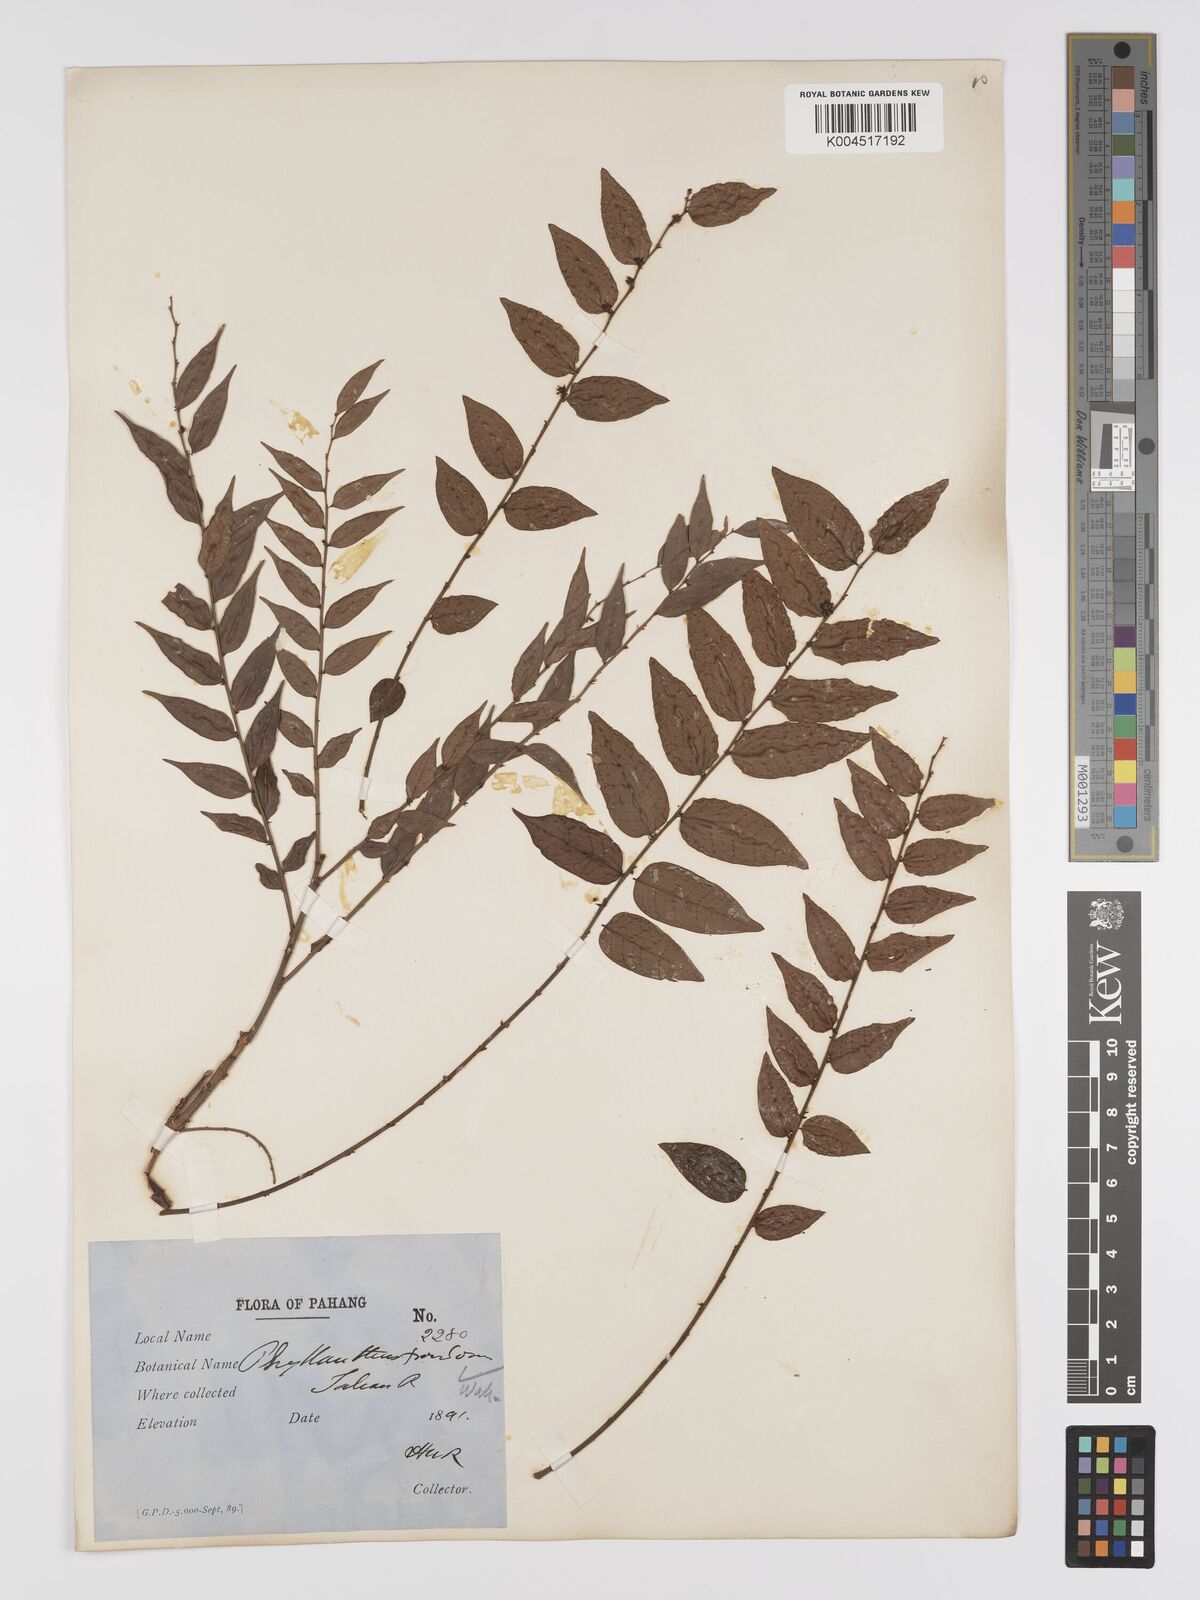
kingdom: Plantae
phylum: Tracheophyta
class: Magnoliopsida
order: Malpighiales
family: Phyllanthaceae
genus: Phyllanthus
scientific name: Phyllanthus
